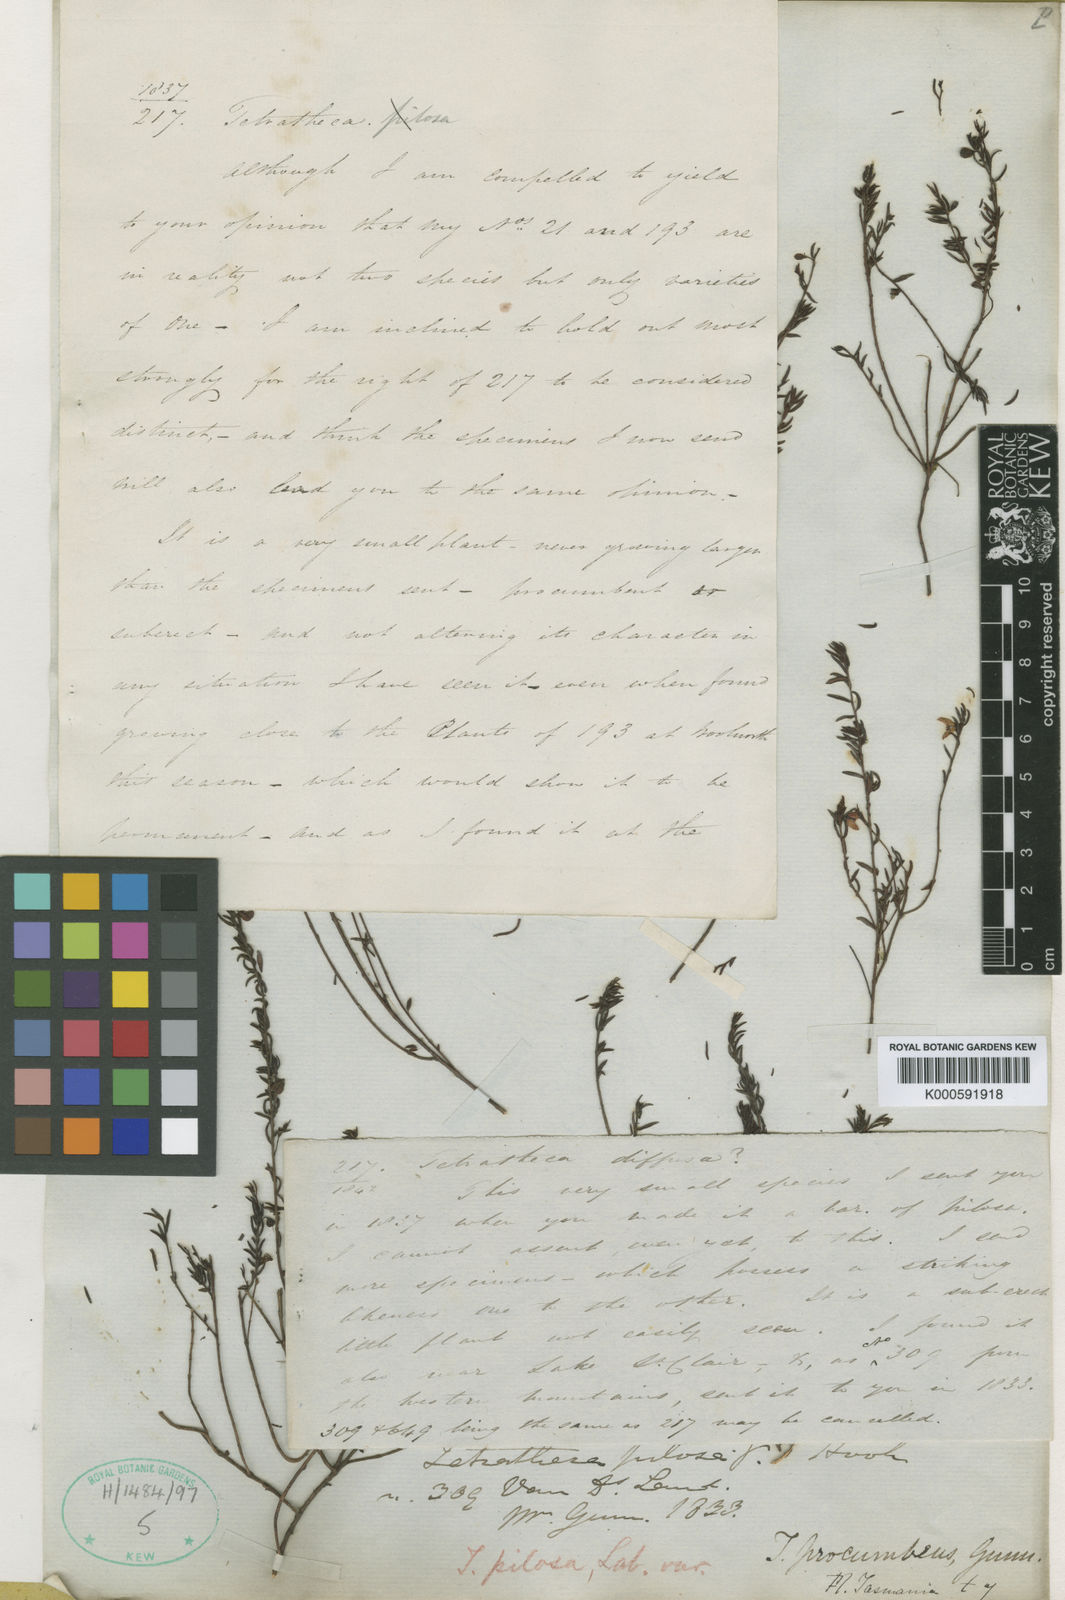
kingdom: Plantae
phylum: Tracheophyta
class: Magnoliopsida
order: Oxalidales
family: Elaeocarpaceae
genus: Tetratheca
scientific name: Tetratheca pilosa
